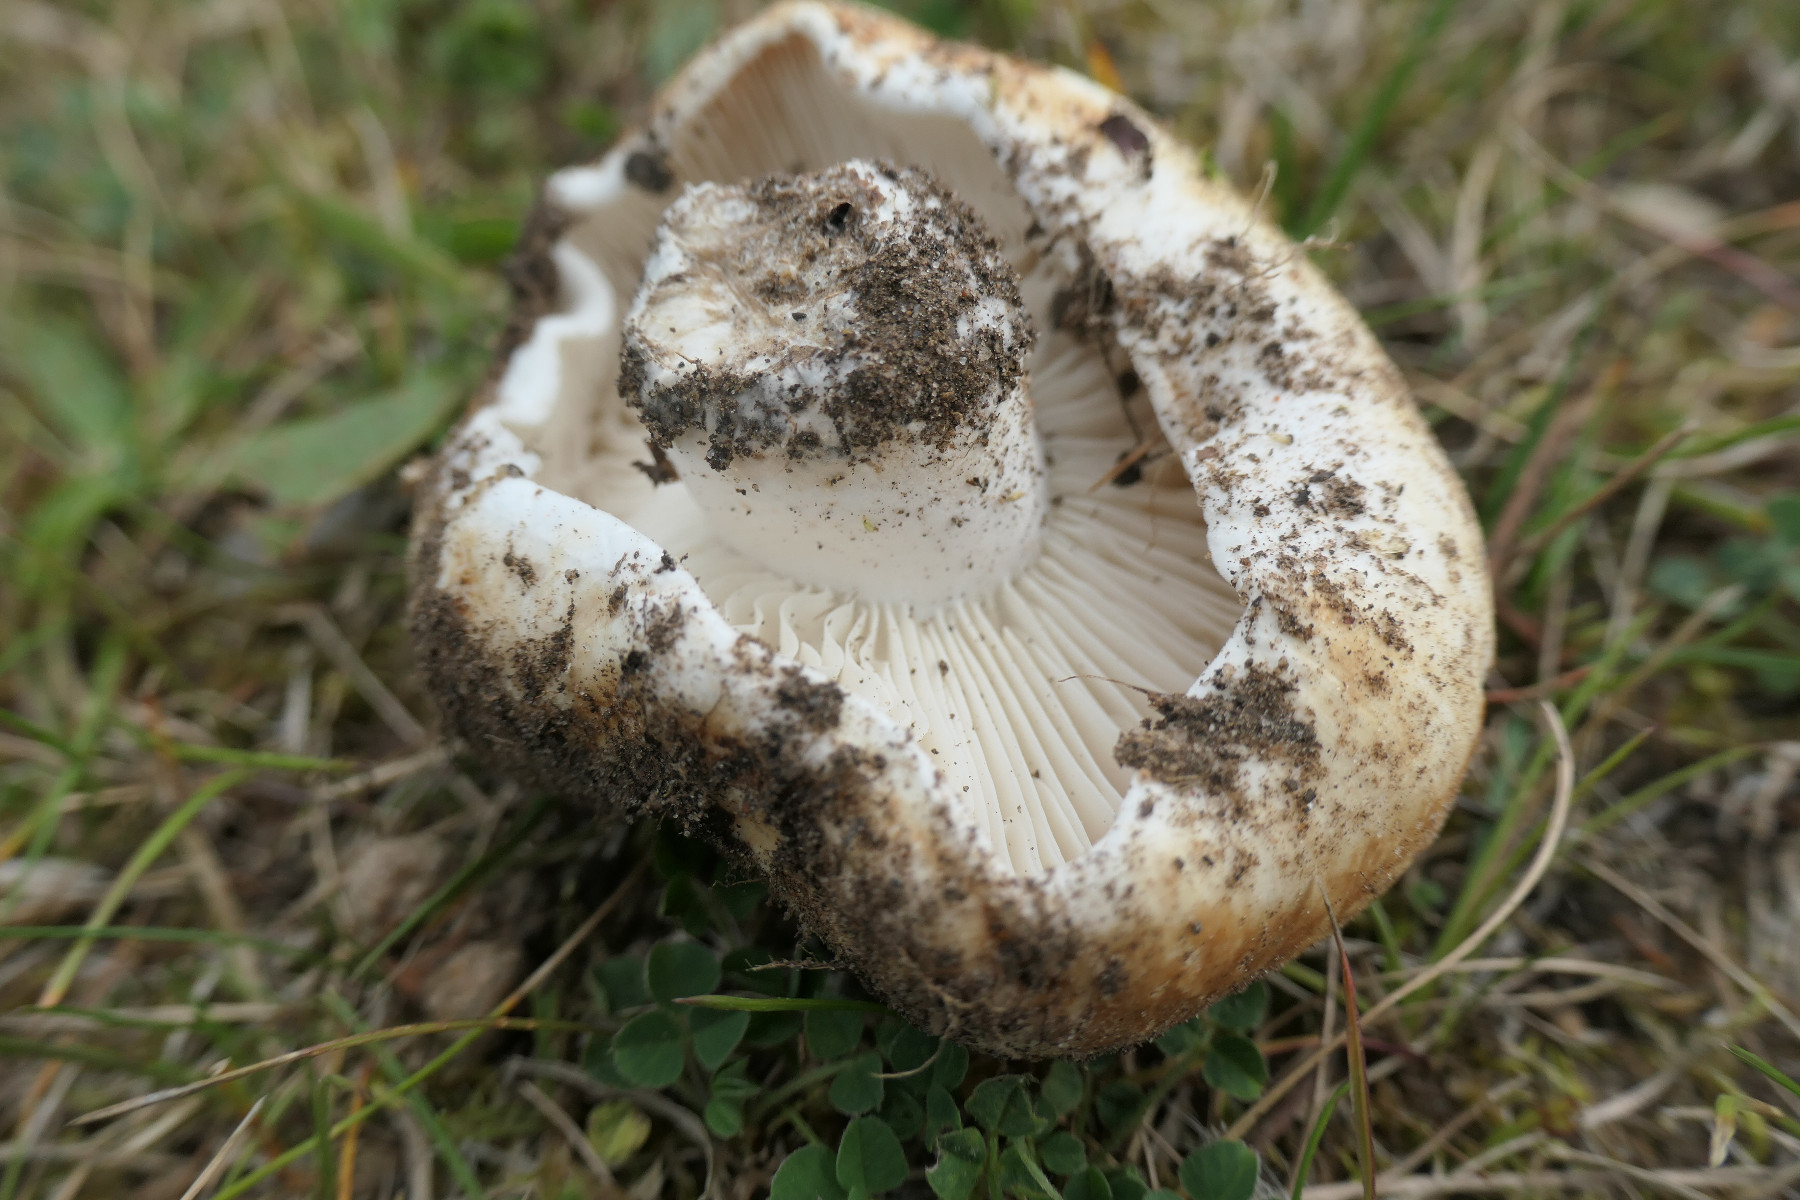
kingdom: Fungi
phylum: Basidiomycota
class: Agaricomycetes
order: Russulales
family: Russulaceae
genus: Russula
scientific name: Russula chloroides
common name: grønhalset tragt-skørhat
